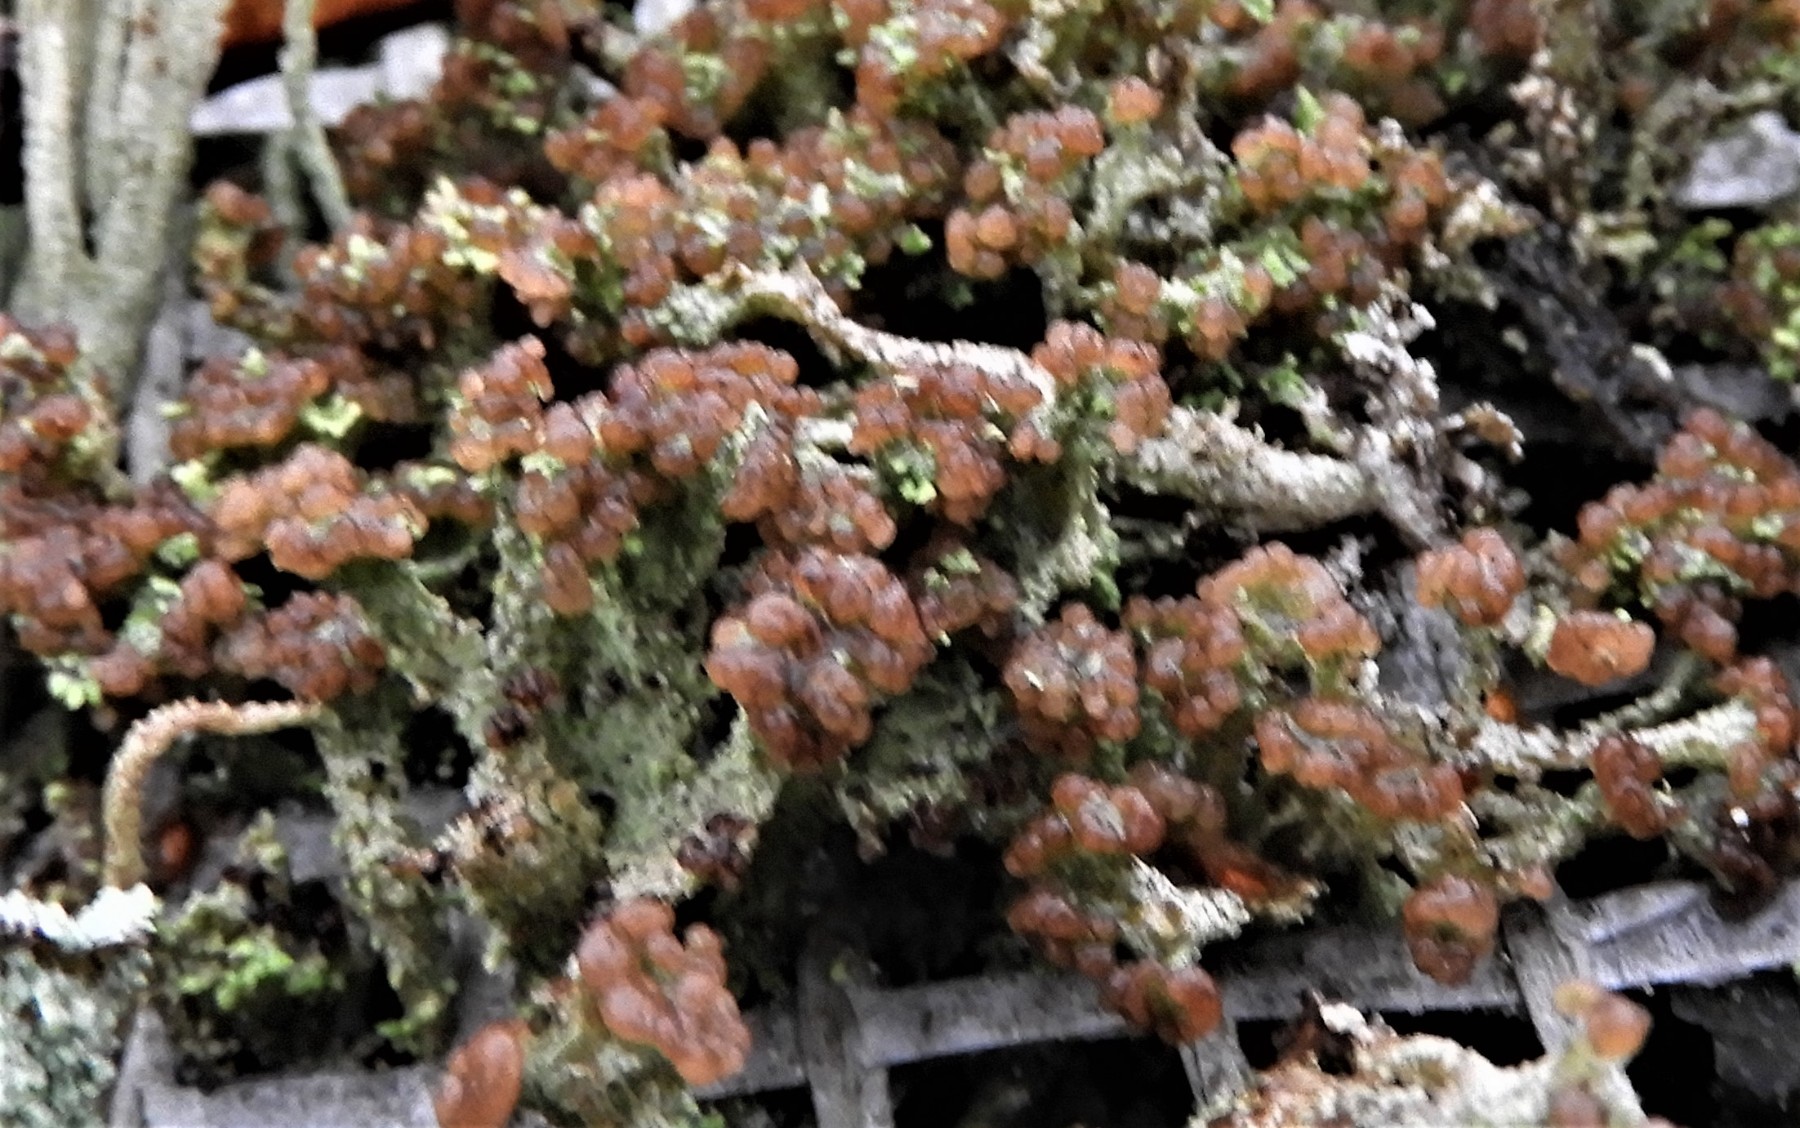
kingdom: Fungi
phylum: Ascomycota
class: Lecanoromycetes
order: Lecanorales
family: Cladoniaceae
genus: Cladonia
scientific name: Cladonia ramulosa
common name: kliddet bægerlav
